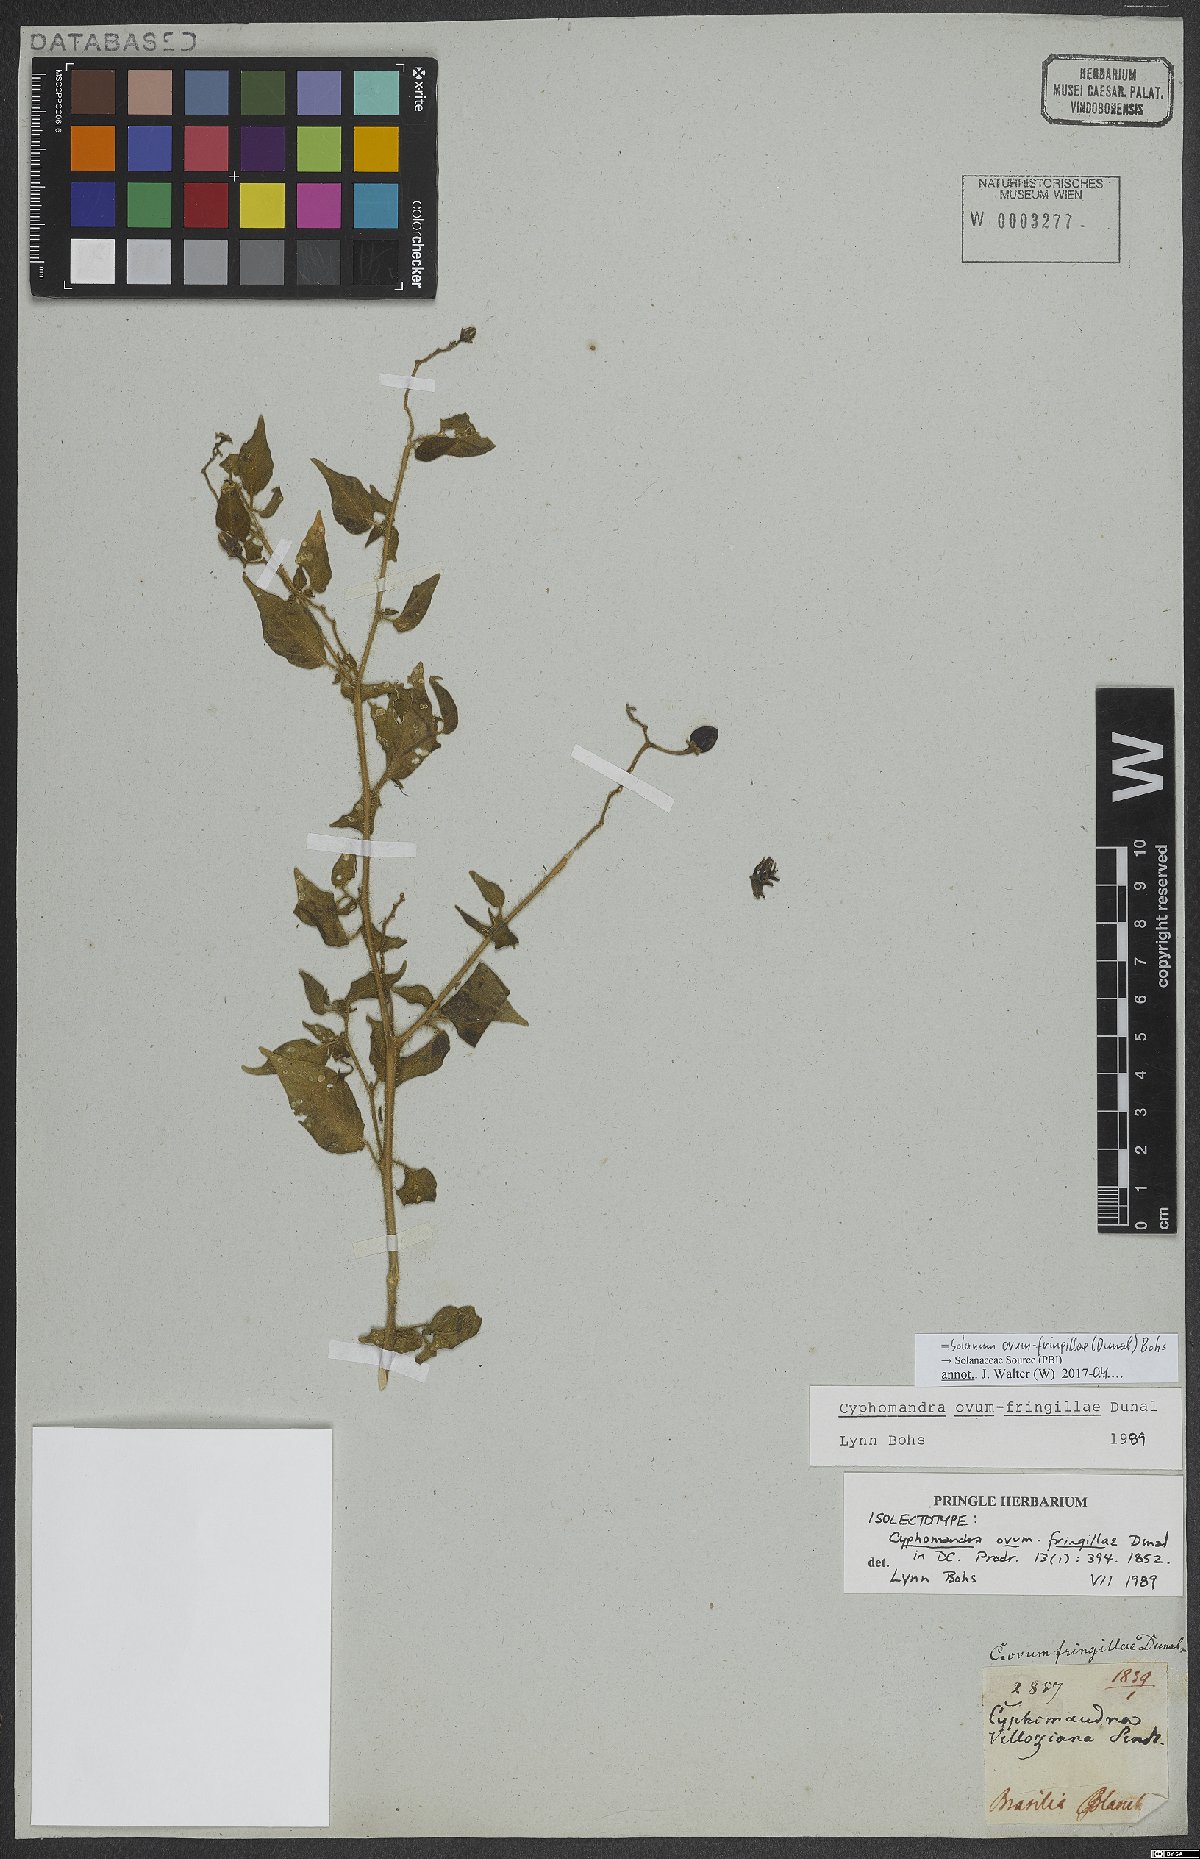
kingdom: Plantae
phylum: Tracheophyta
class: Magnoliopsida
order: Solanales
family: Solanaceae
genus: Solanum
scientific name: Solanum ovum-fringillae
